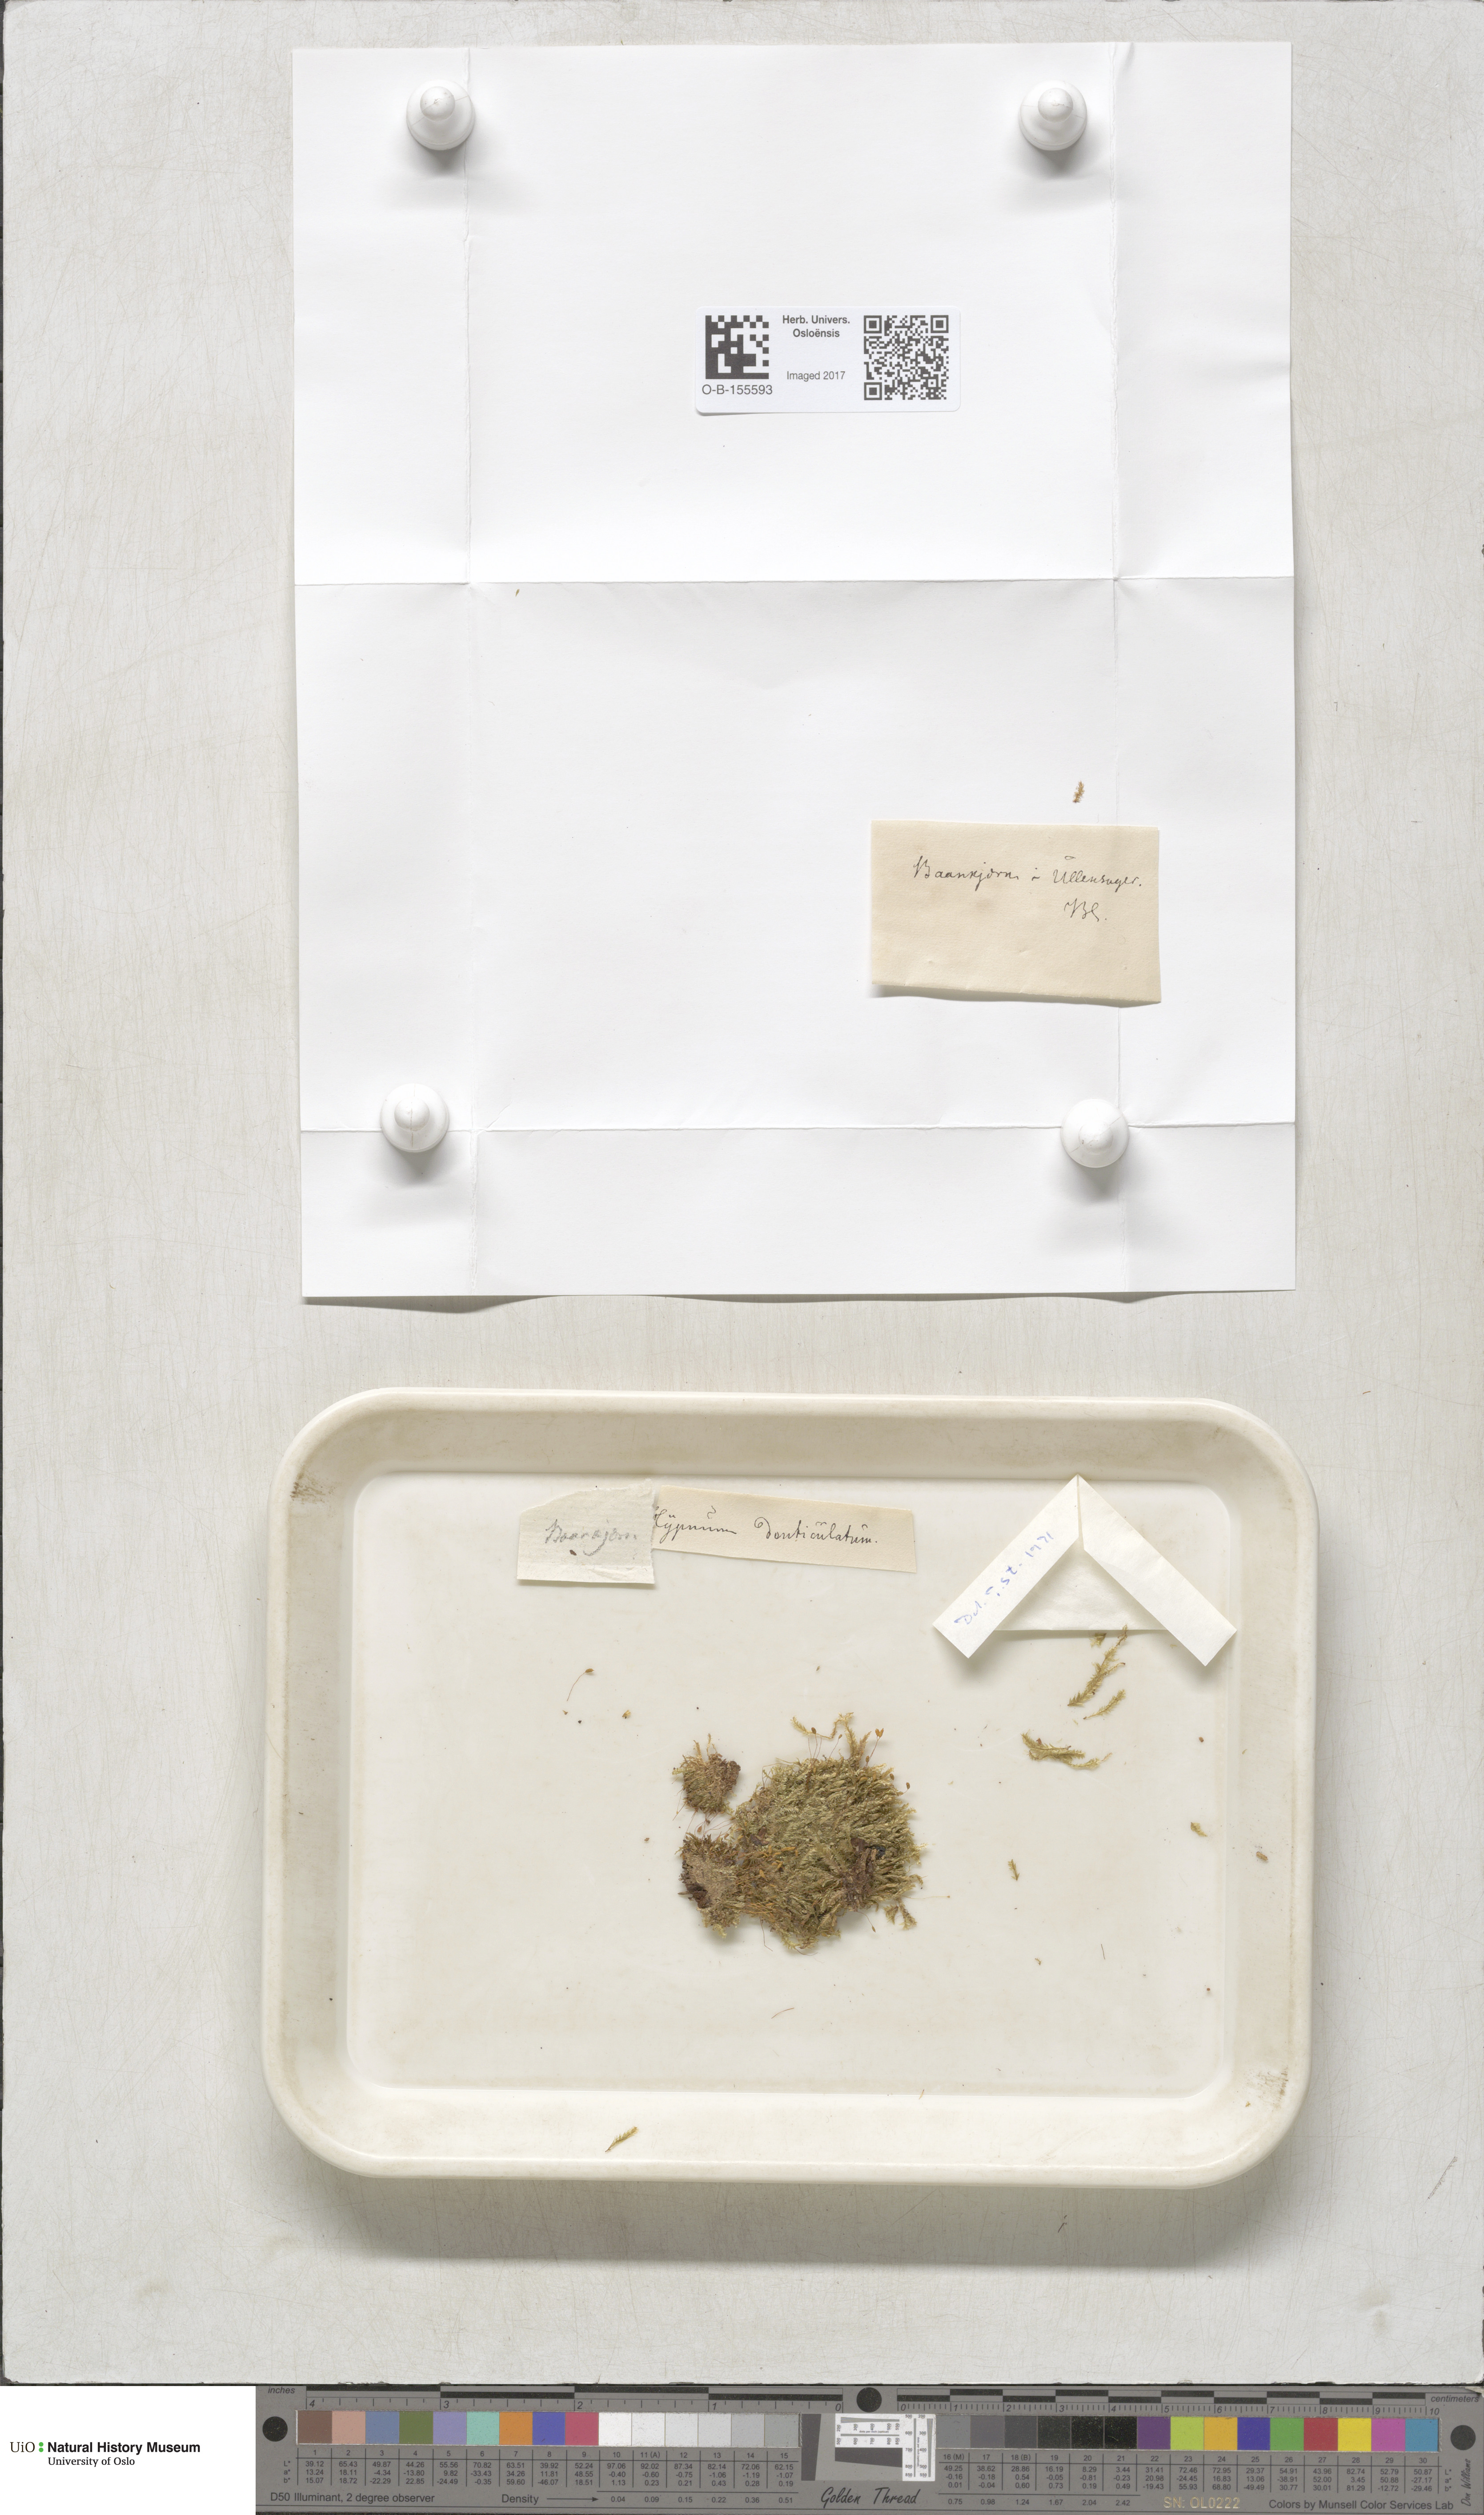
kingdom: Plantae
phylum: Bryophyta
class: Bryopsida
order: Hypnales
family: Plagiotheciaceae
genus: Plagiothecium
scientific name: Plagiothecium laetum
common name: Bright silk moss
